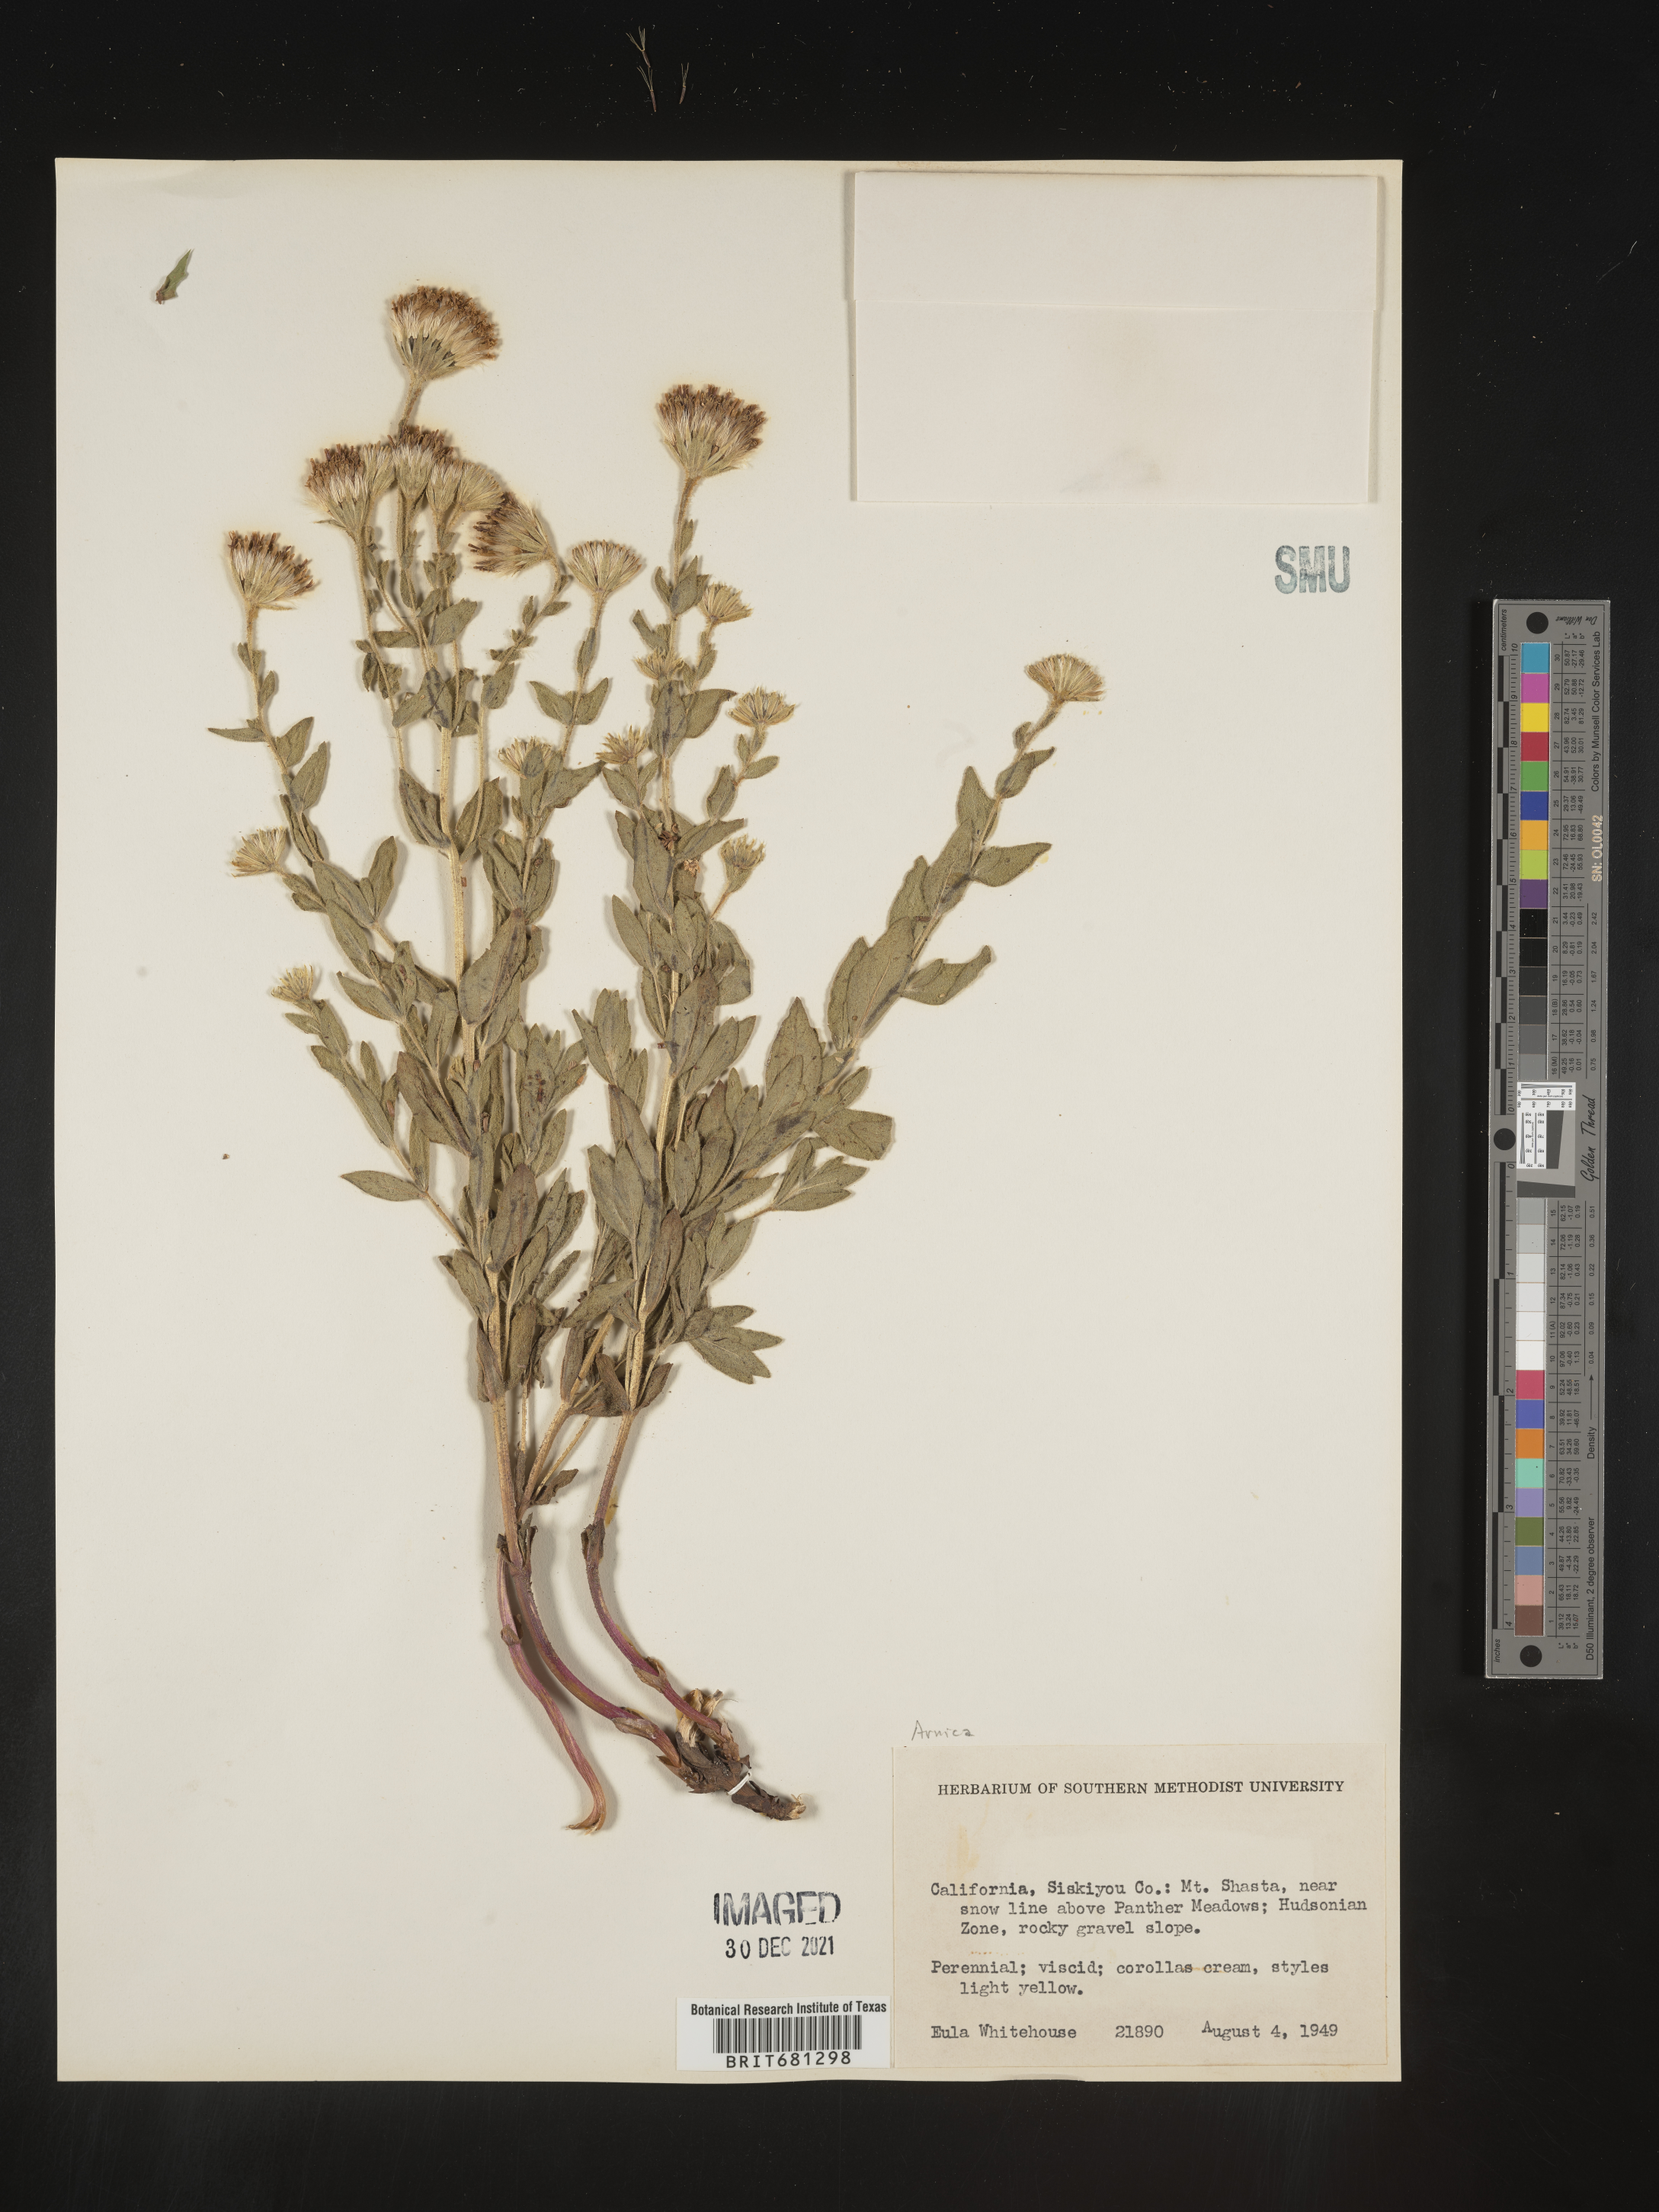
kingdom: Plantae
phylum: Tracheophyta
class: Magnoliopsida
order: Asterales
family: Asteraceae
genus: Arnica
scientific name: Arnica
